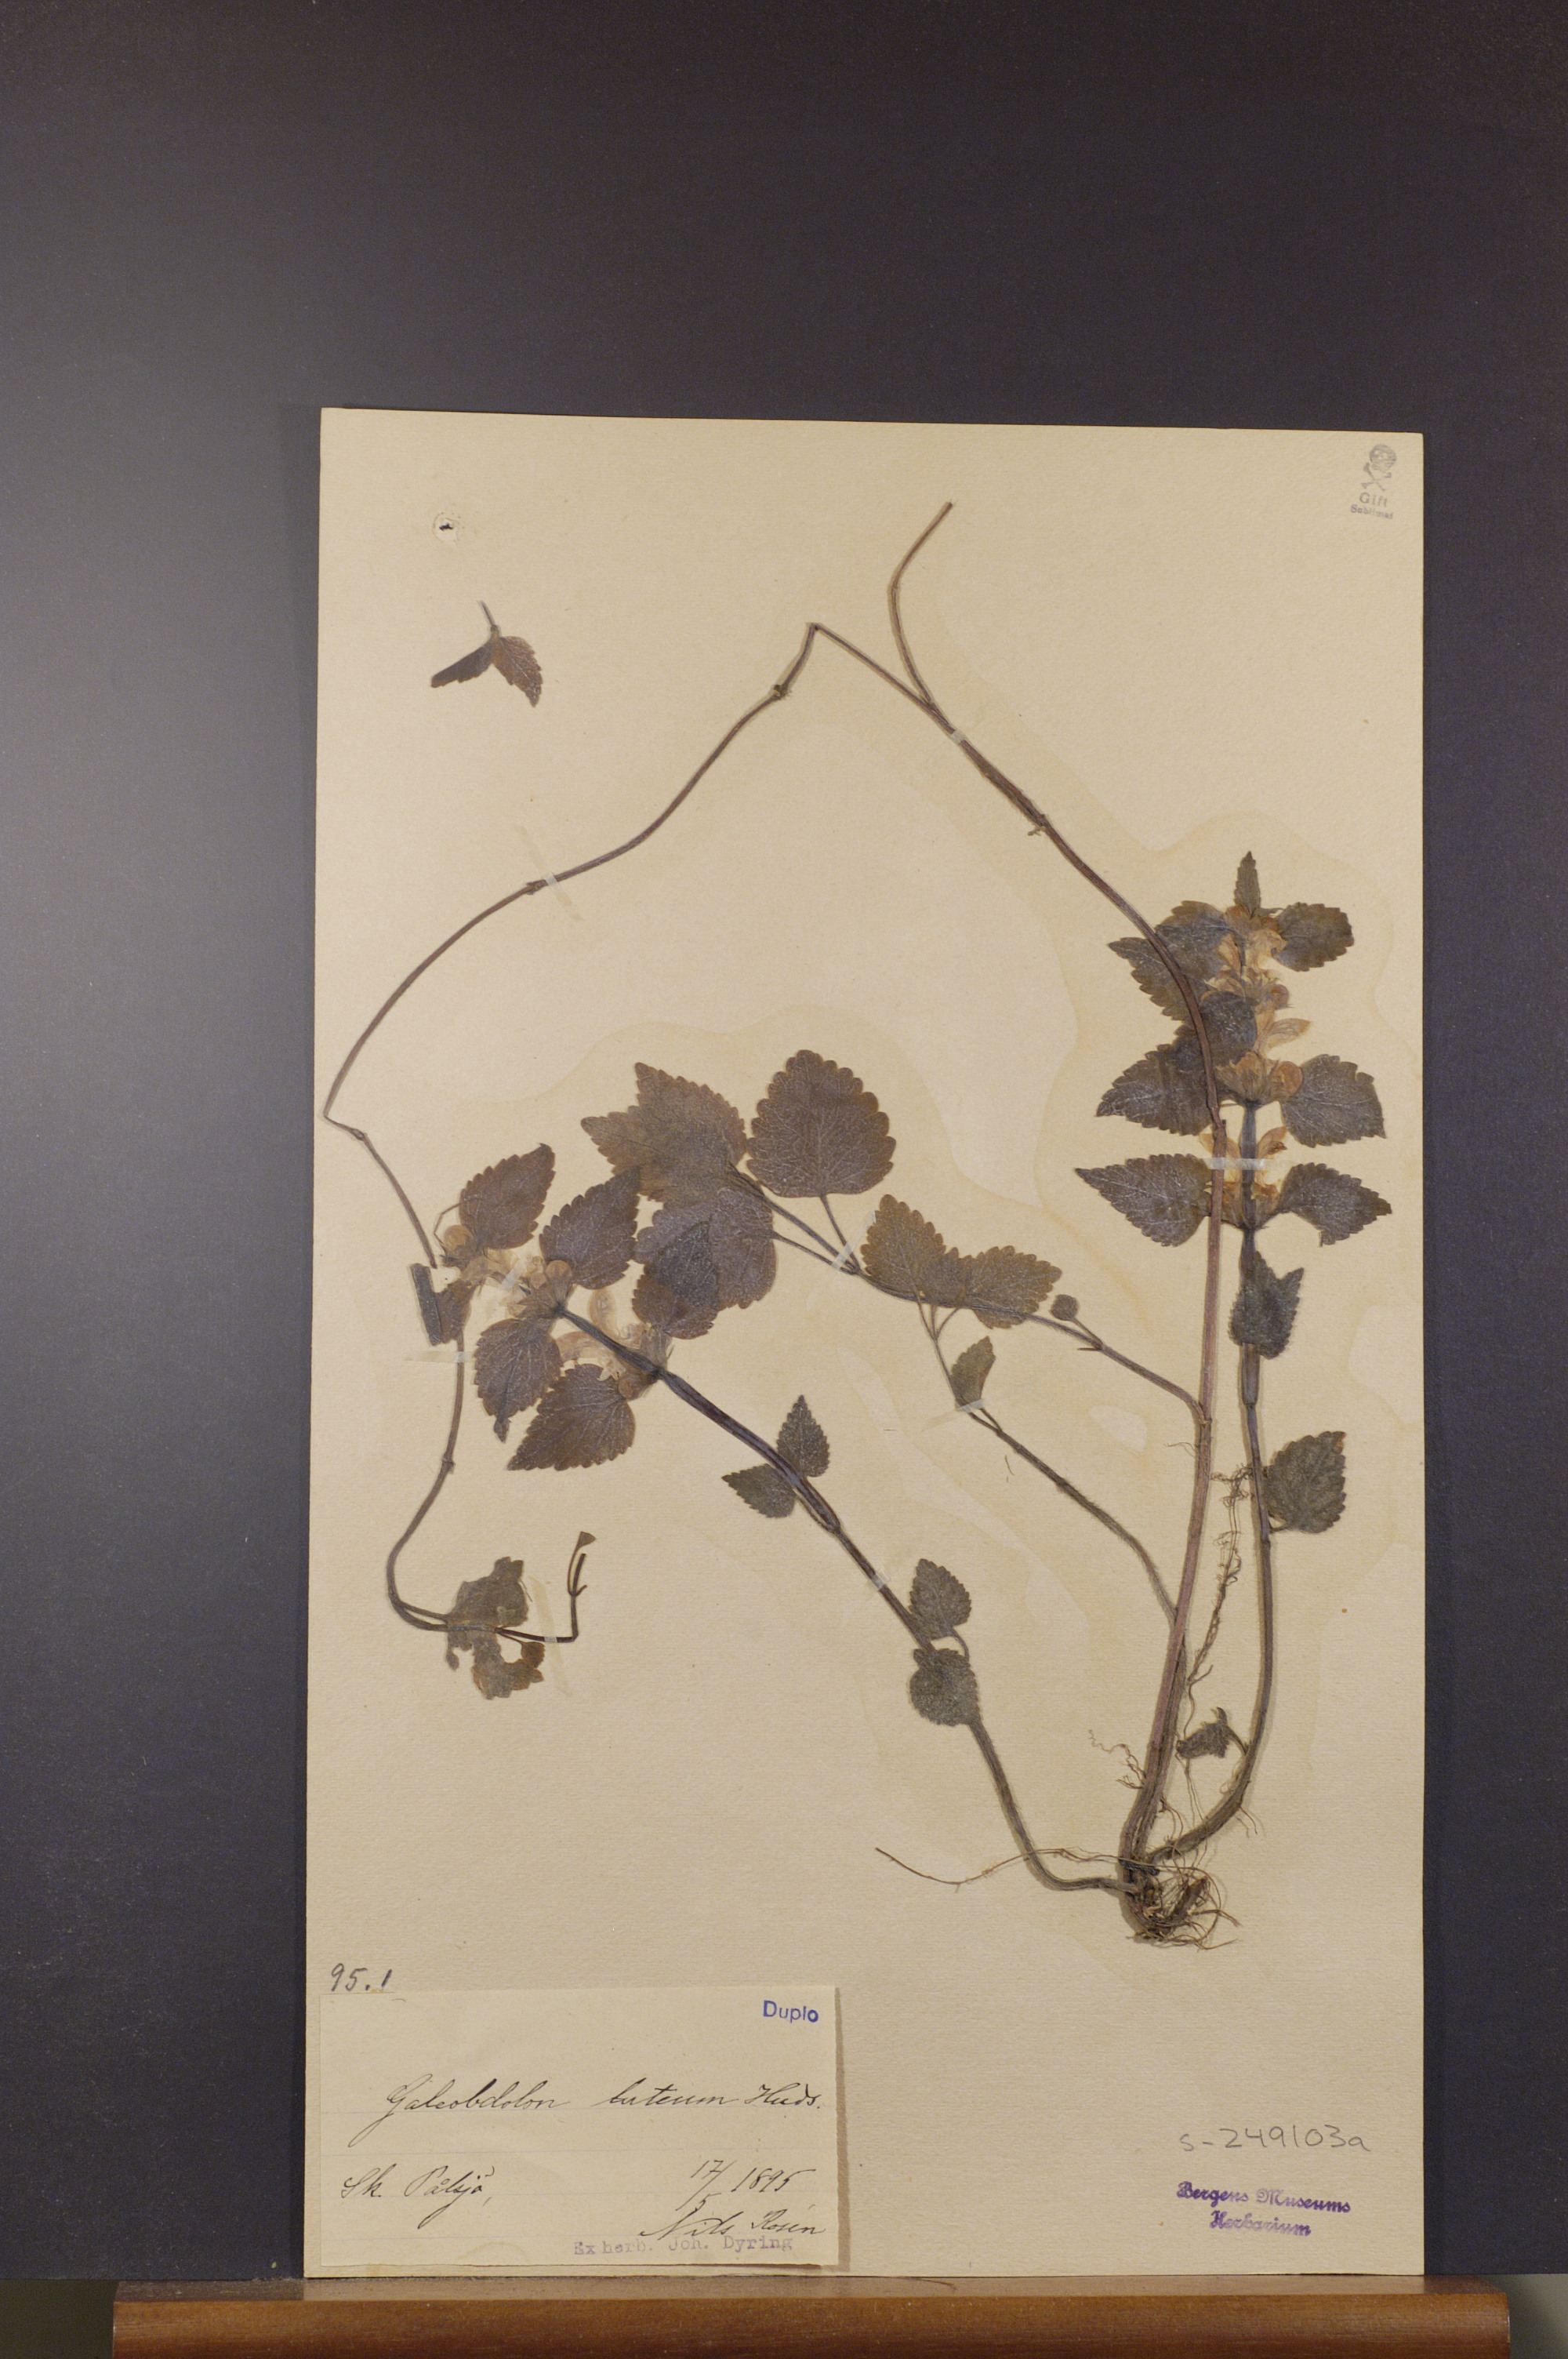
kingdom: Plantae
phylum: Tracheophyta
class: Magnoliopsida
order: Lamiales
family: Lamiaceae
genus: Lamium
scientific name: Lamium galeobdolon
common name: Yellow archangel
